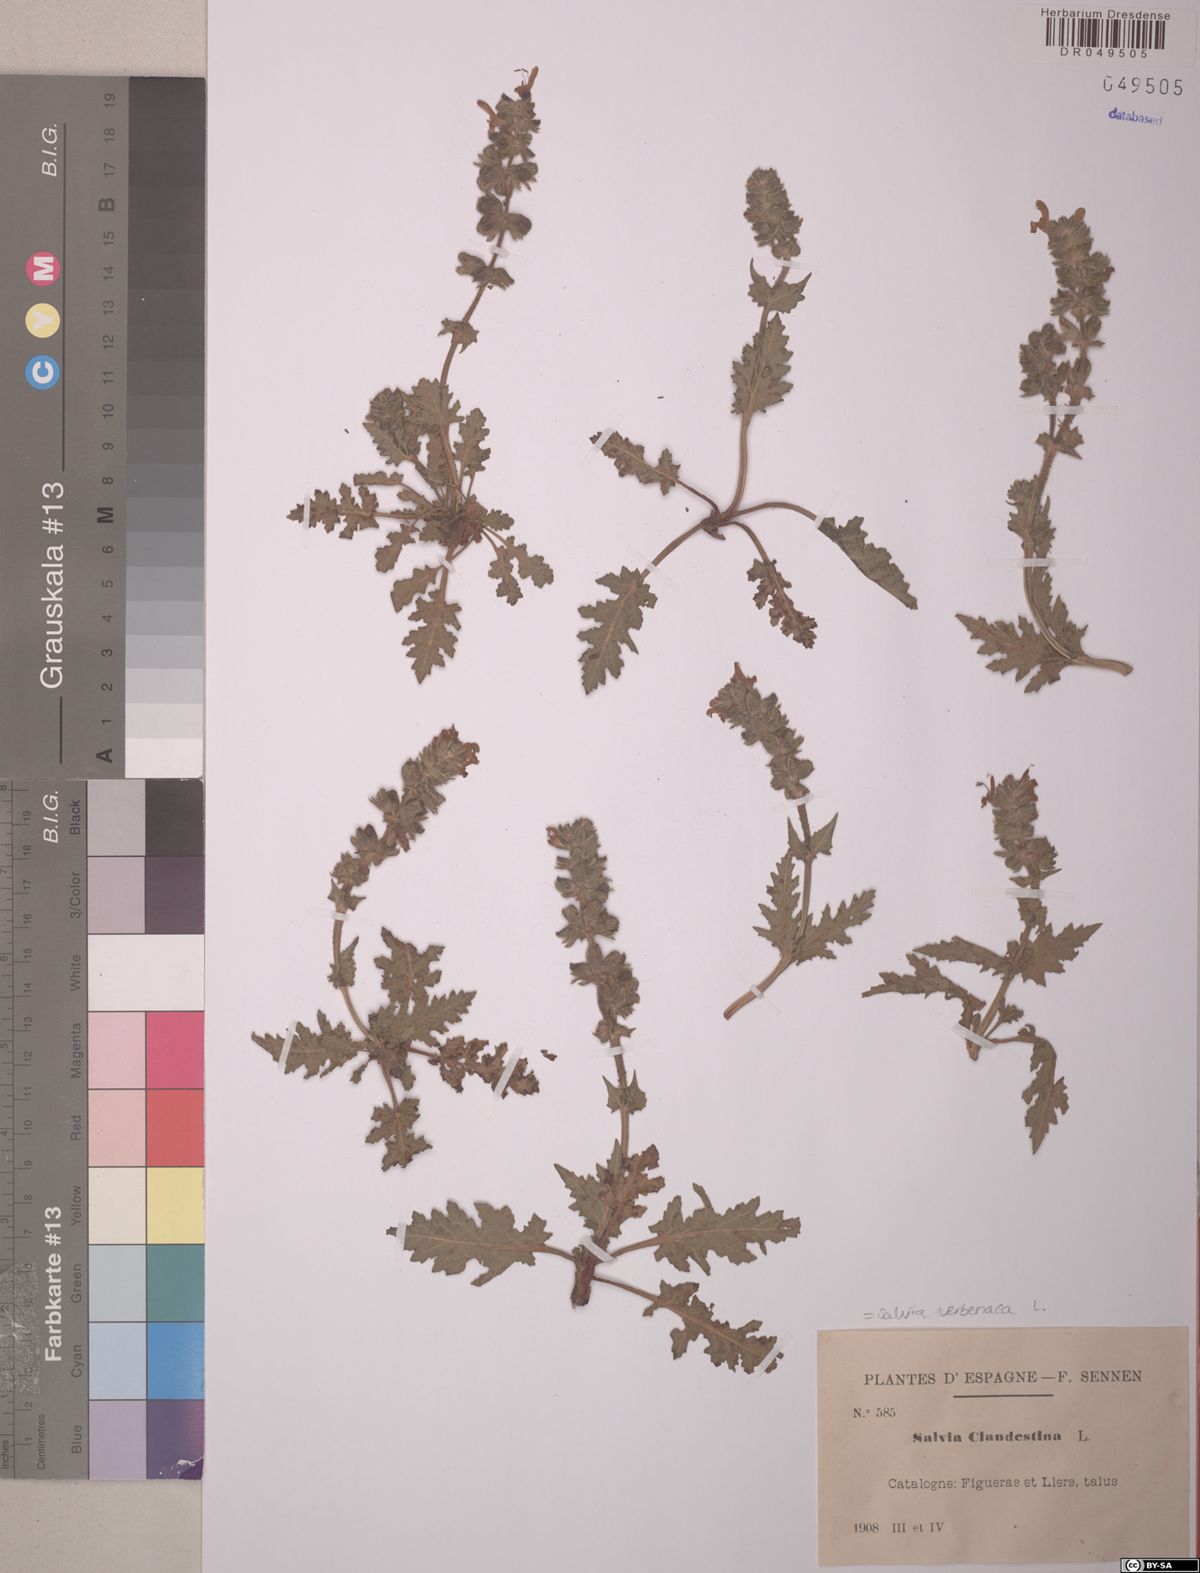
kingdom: Plantae
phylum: Tracheophyta
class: Magnoliopsida
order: Lamiales
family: Lamiaceae
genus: Salvia
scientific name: Salvia verbenaca
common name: Wild clary
